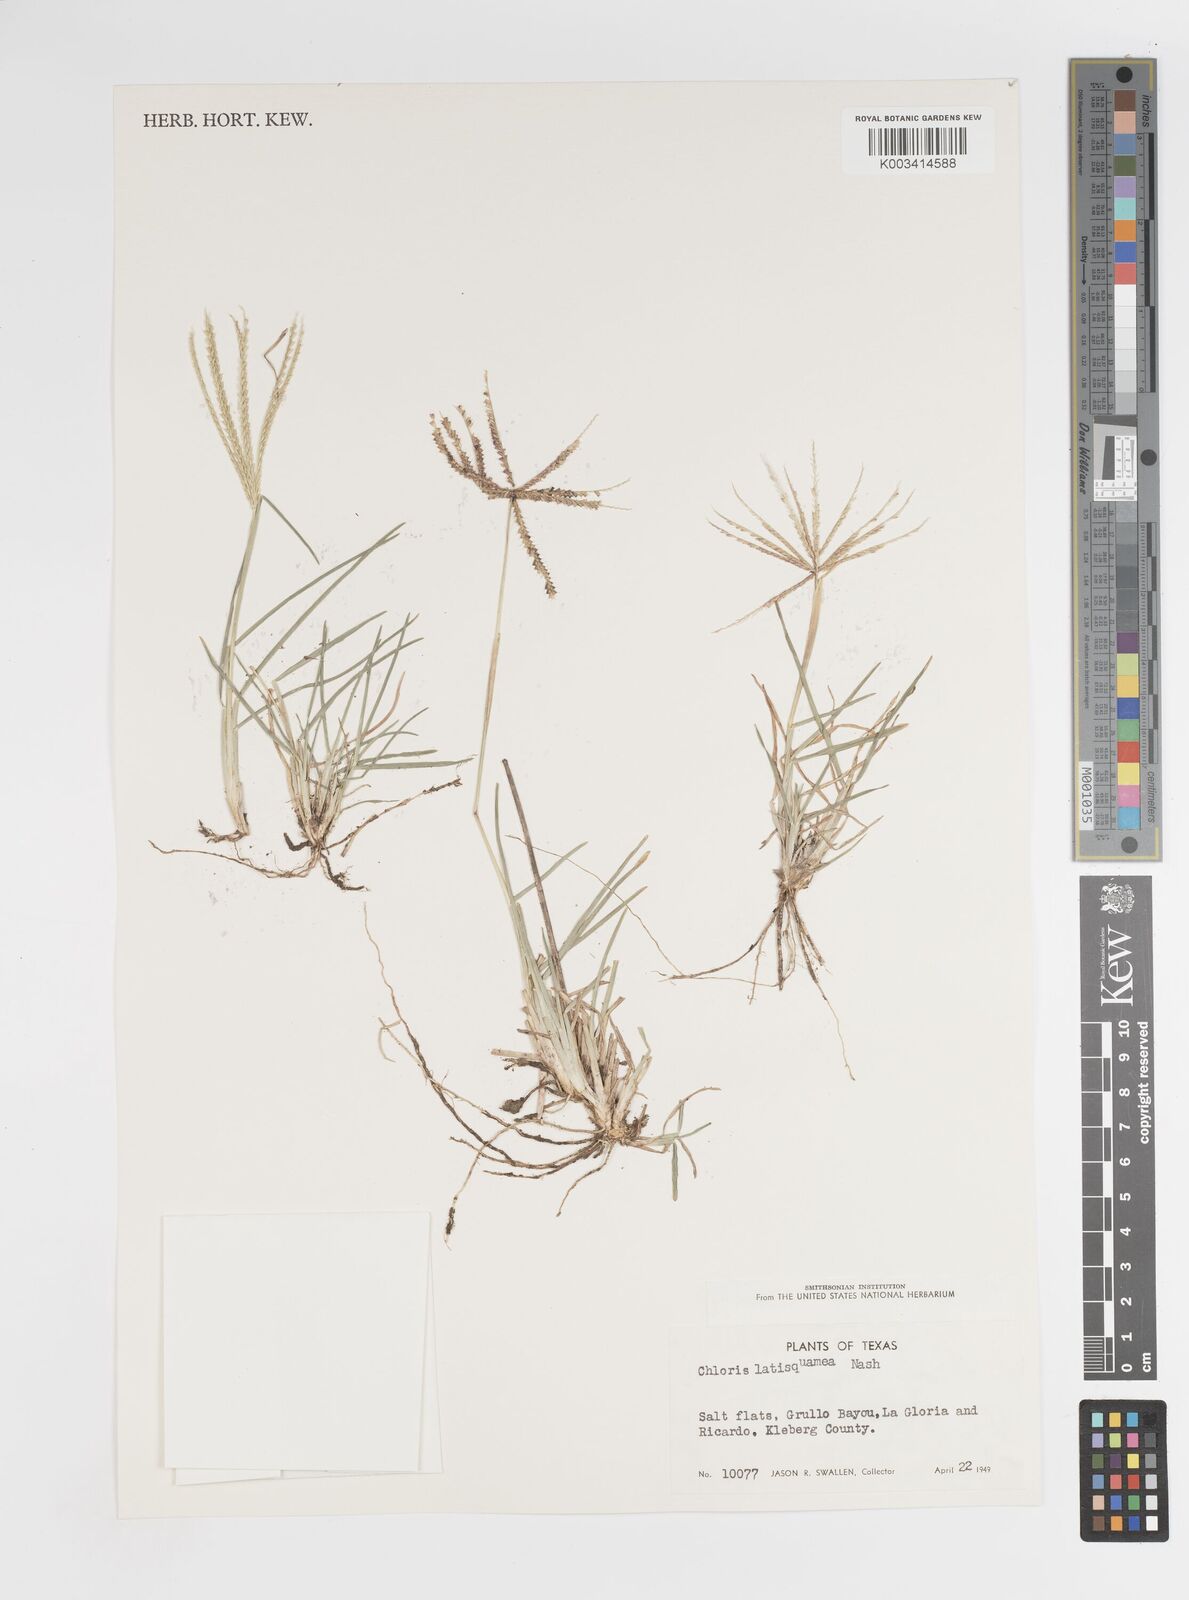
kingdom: Plantae
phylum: Tracheophyta
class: Liliopsida
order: Poales
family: Poaceae
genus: Chloris
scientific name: Chloris subdolichostachya
